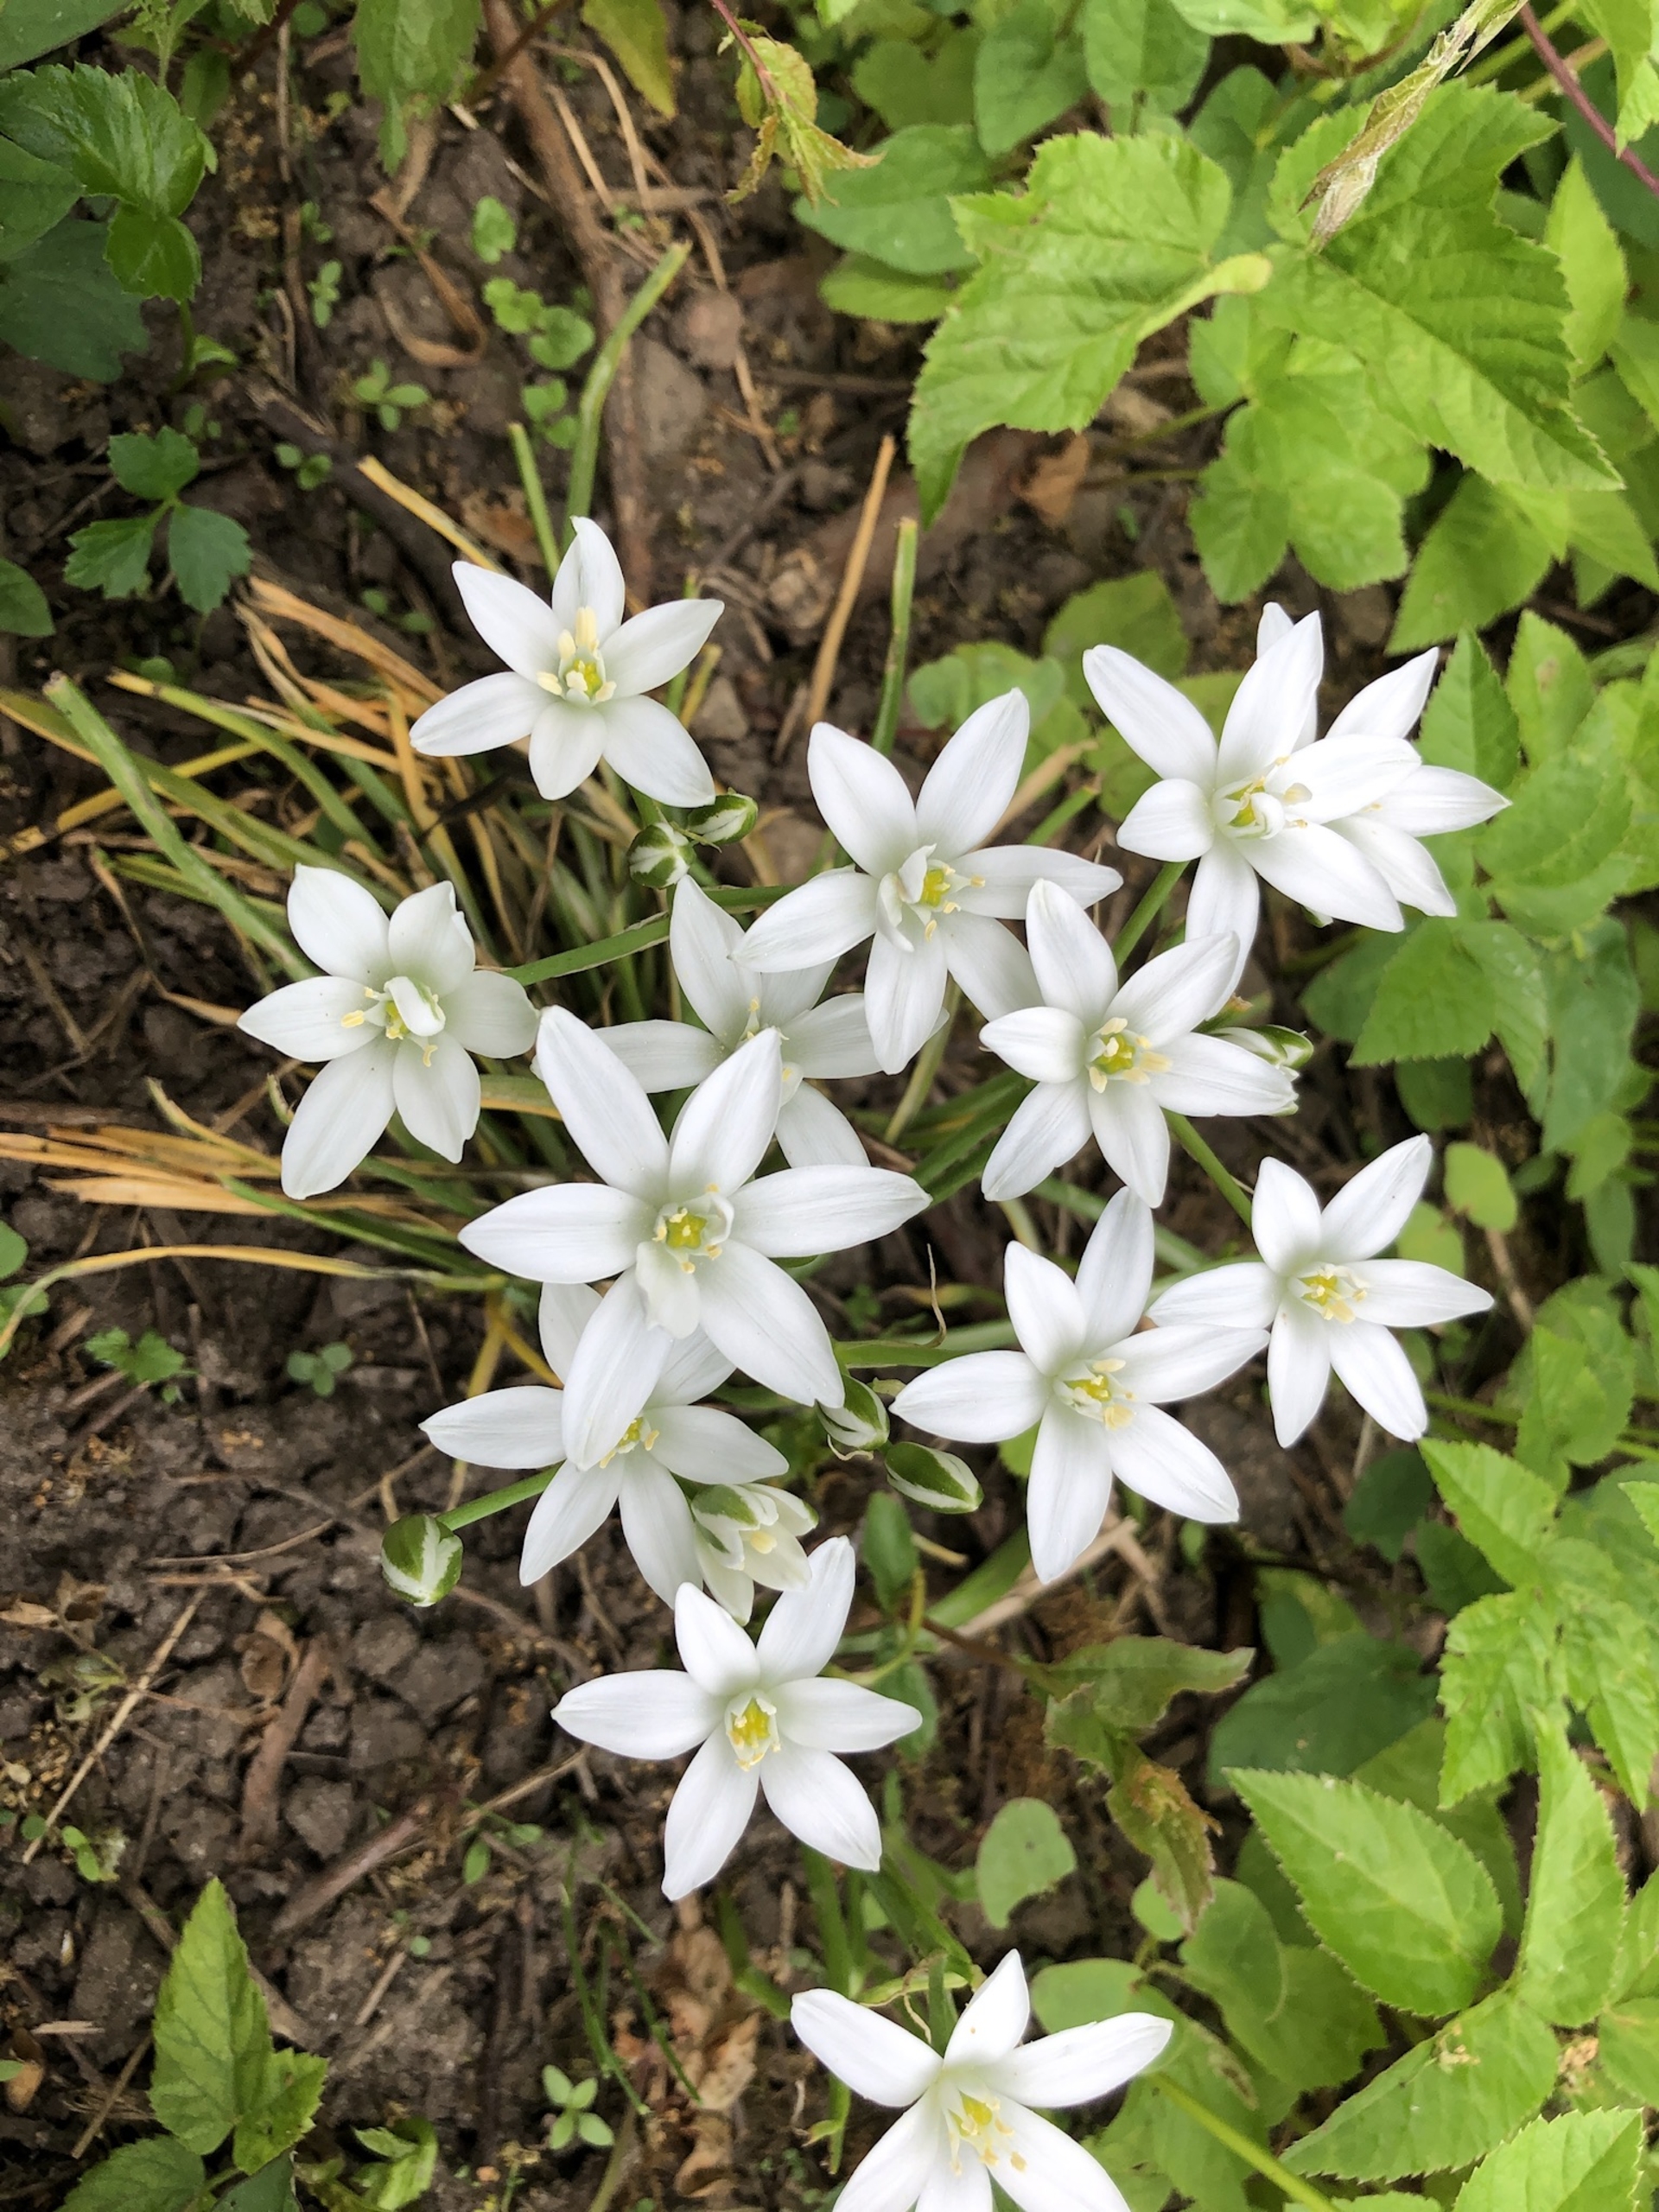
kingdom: Plantae
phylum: Tracheophyta
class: Liliopsida
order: Asparagales
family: Asparagaceae
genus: Ornithogalum
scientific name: Ornithogalum umbellatum
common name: Kost-fuglemælk
